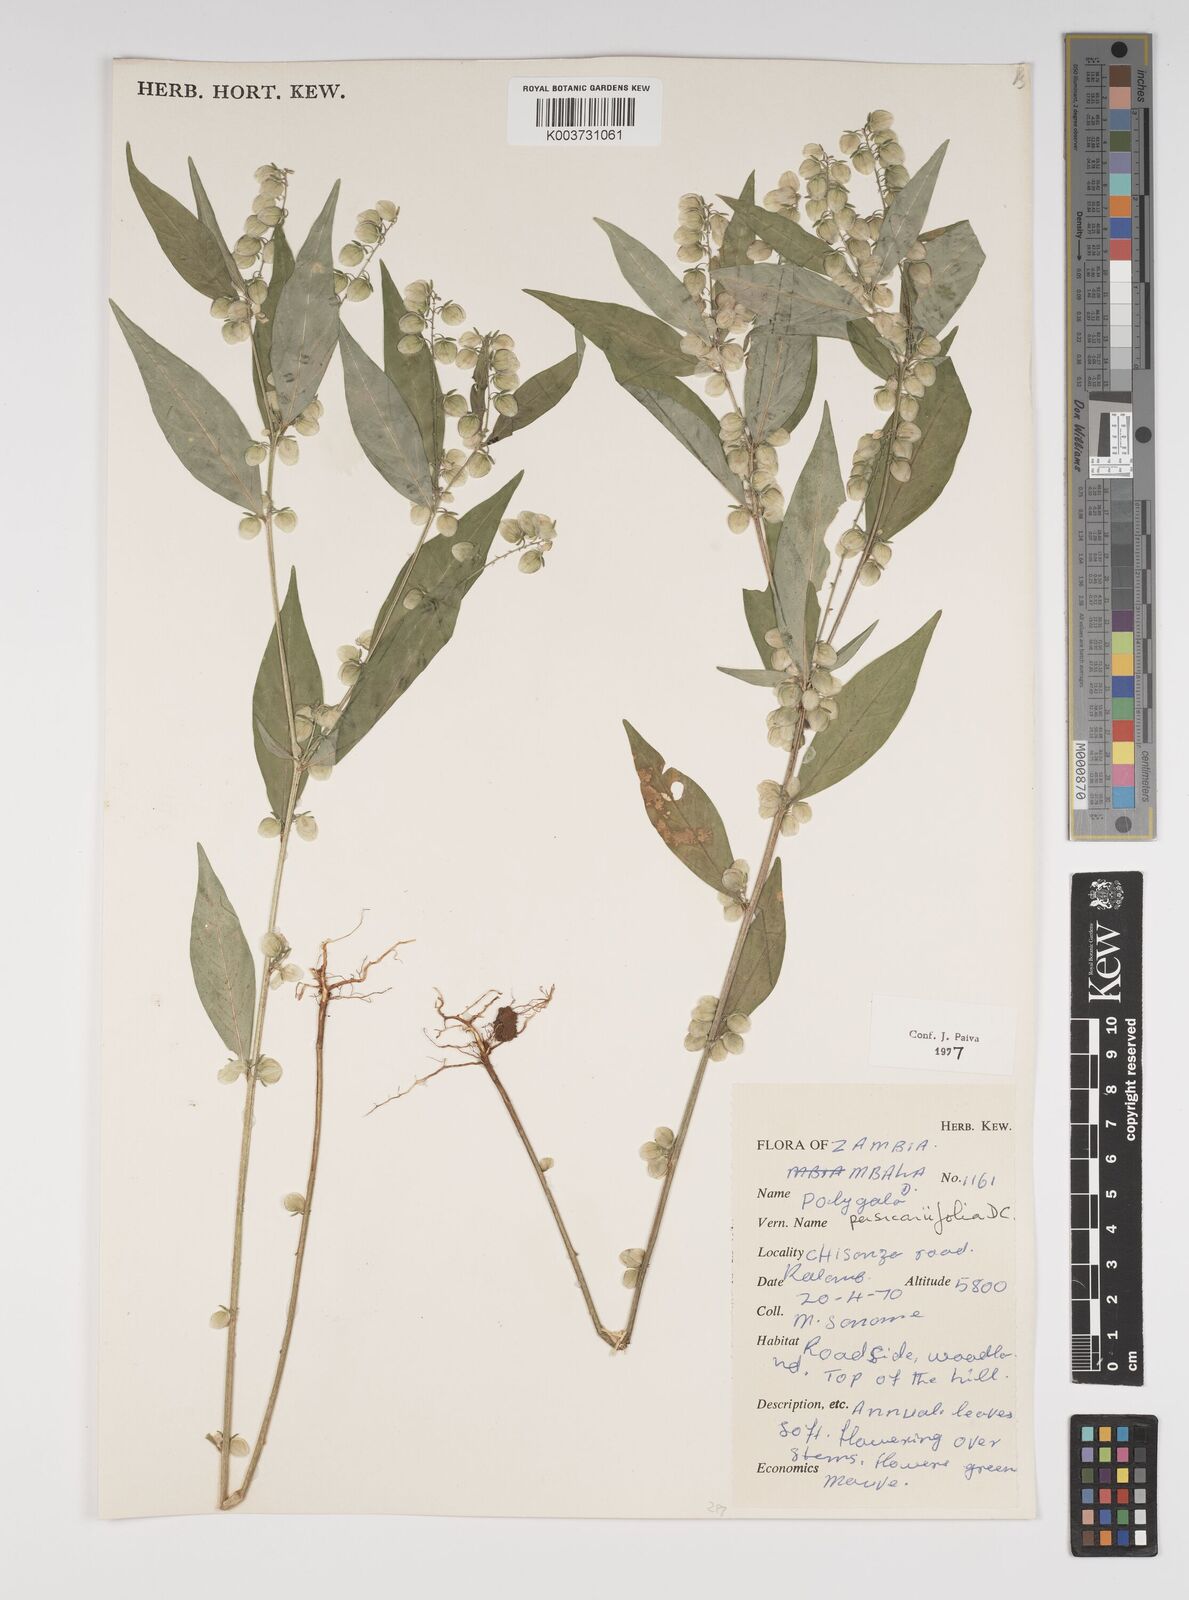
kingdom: Plantae
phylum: Tracheophyta
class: Magnoliopsida
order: Fabales
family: Polygalaceae
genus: Polygala
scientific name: Polygala persicariifolia
